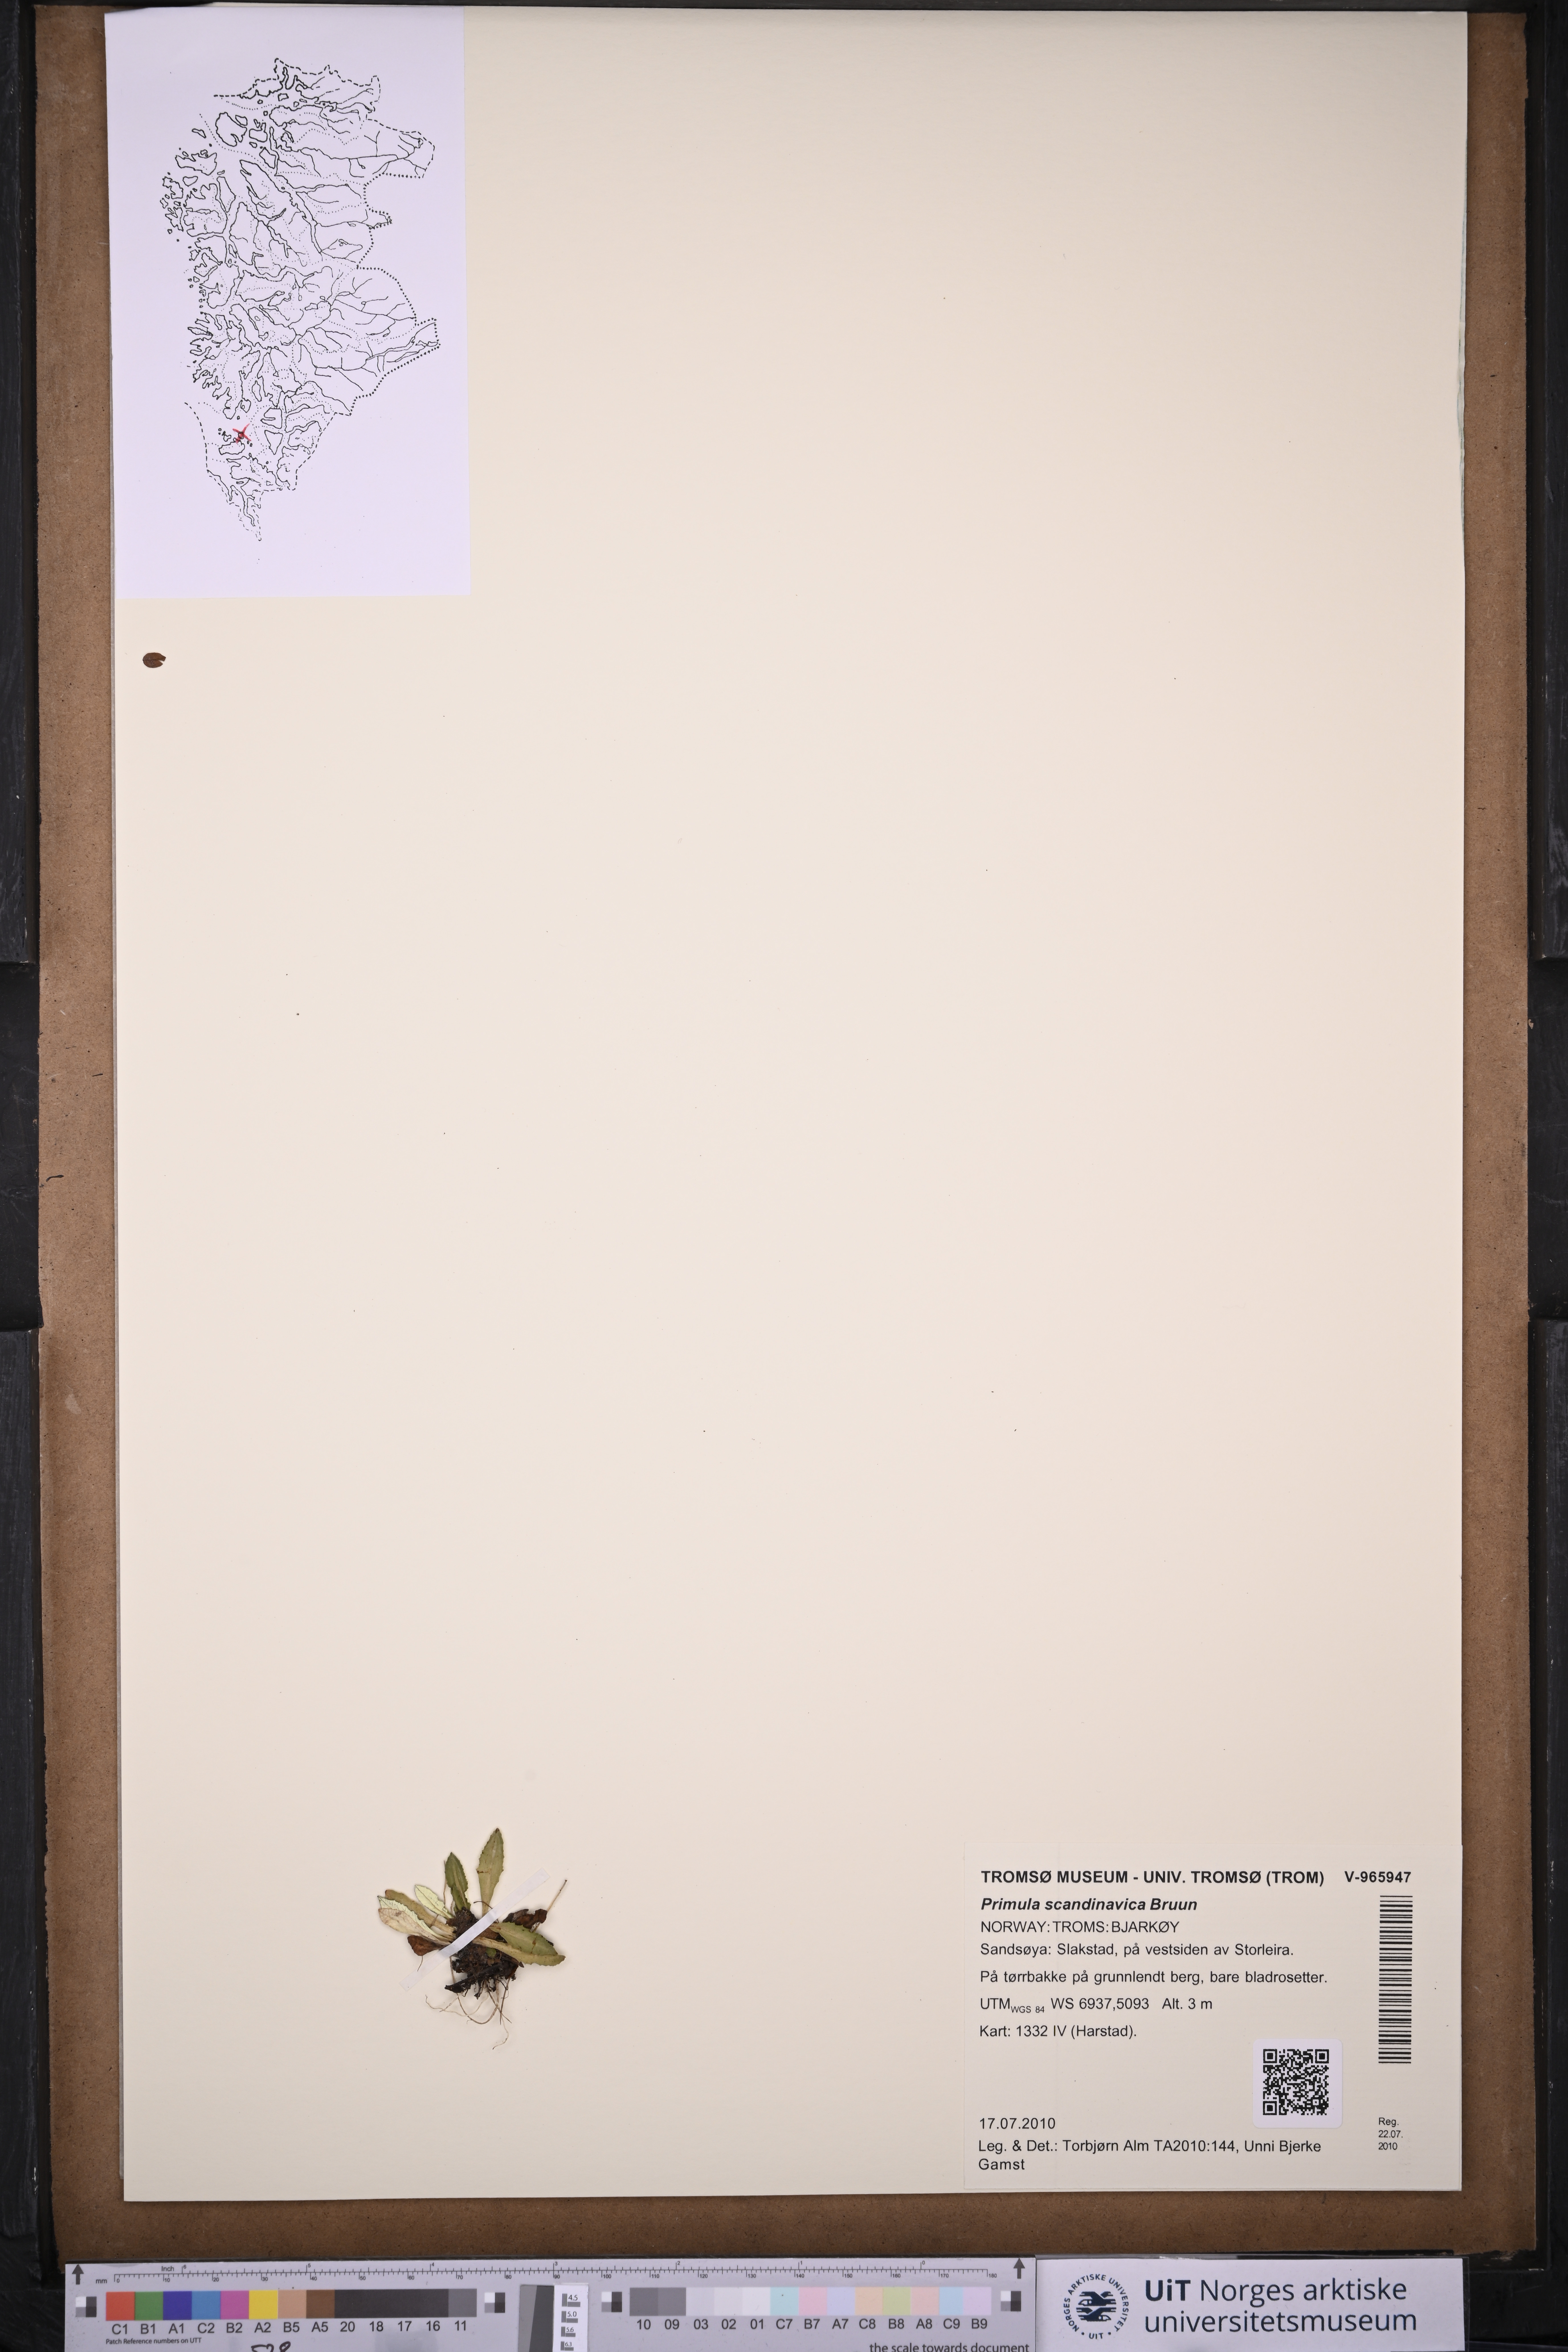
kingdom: Plantae
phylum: Tracheophyta
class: Magnoliopsida
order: Ericales
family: Primulaceae
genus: Primula
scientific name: Primula scandinavica
